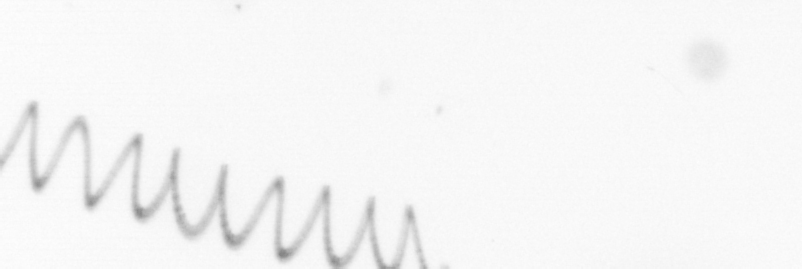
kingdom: Chromista
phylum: Ochrophyta
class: Bacillariophyceae
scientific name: Bacillariophyceae
